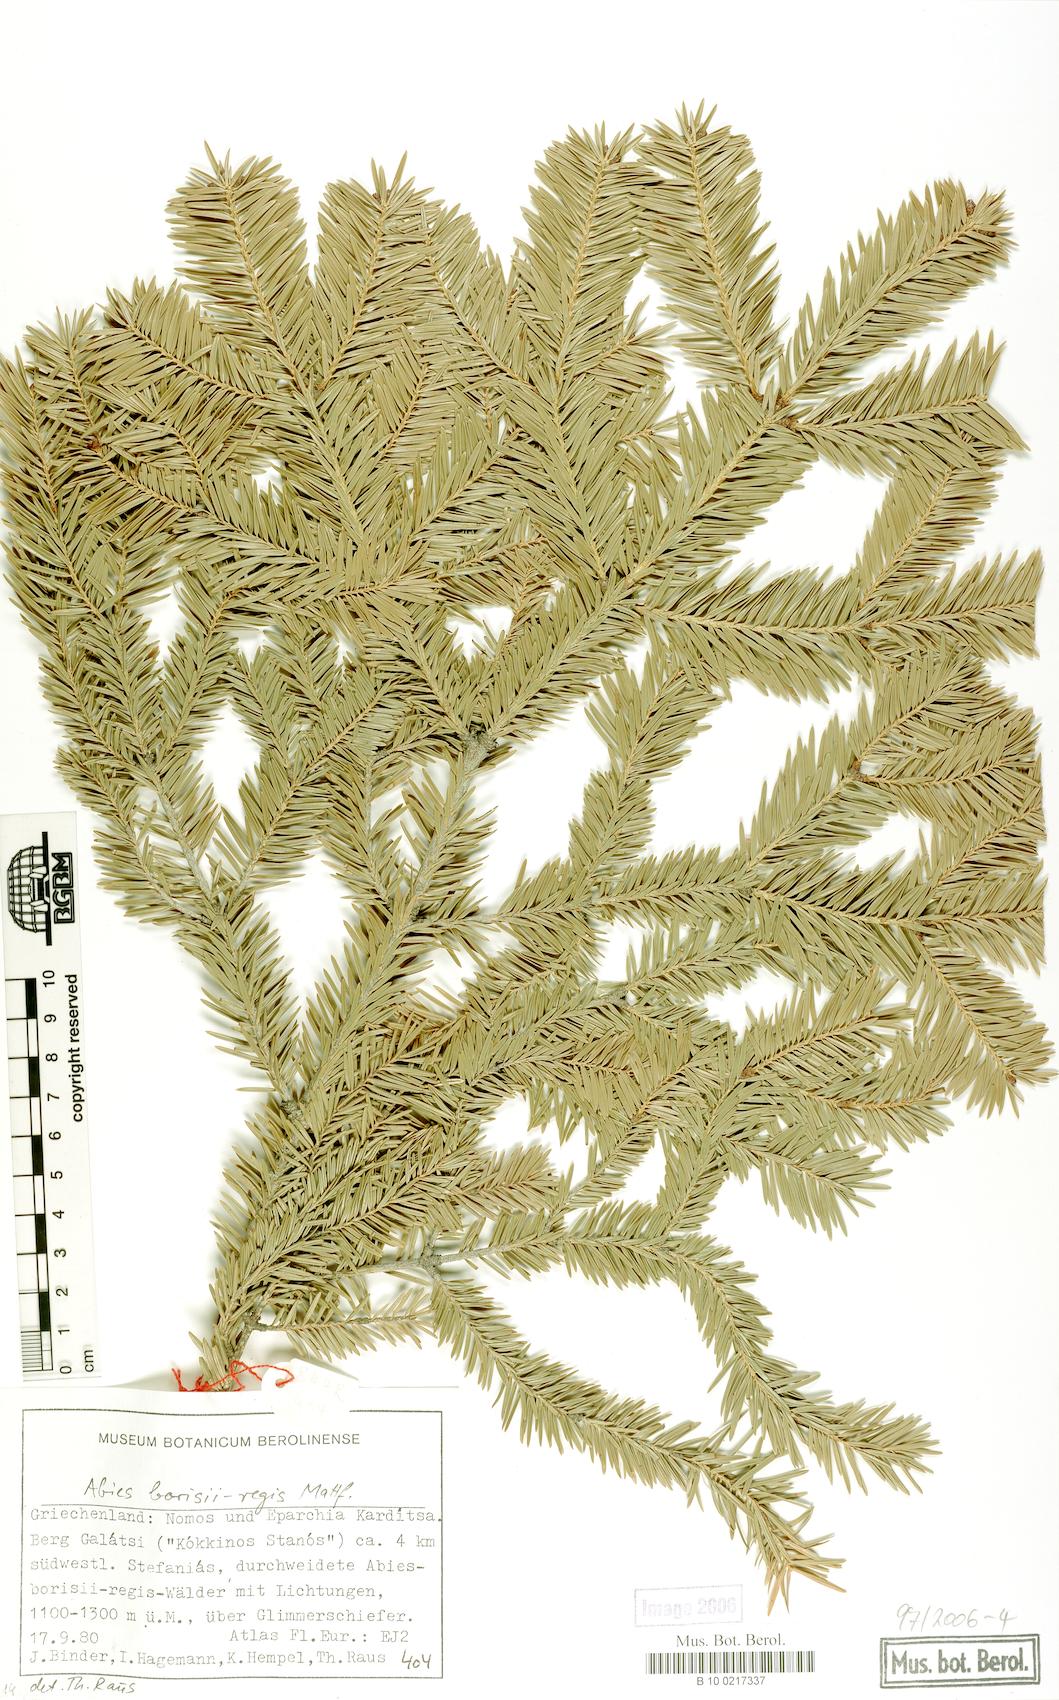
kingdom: Plantae
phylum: Tracheophyta
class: Pinopsida
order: Pinales
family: Pinaceae
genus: Abies
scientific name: Abies borisii-regis
